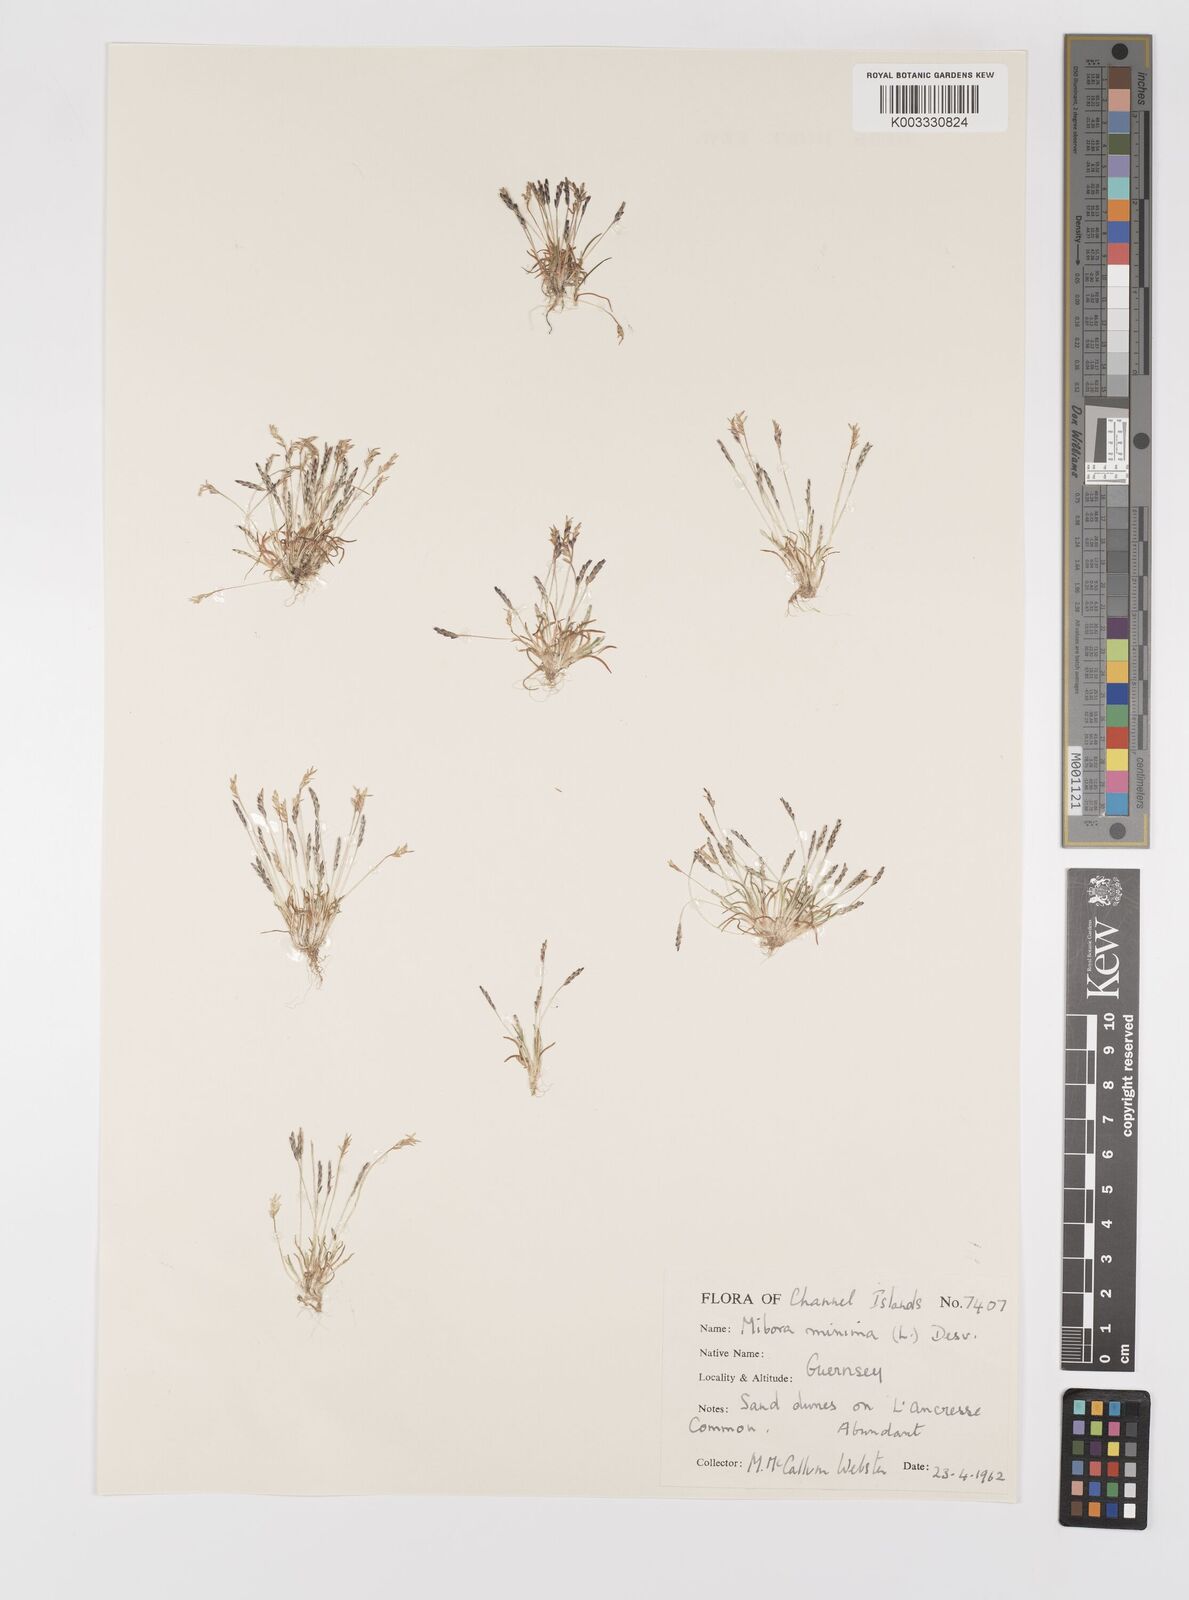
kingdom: Plantae
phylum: Tracheophyta
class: Liliopsida
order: Poales
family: Poaceae
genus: Mibora
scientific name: Mibora minima
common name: Early sand-grass
